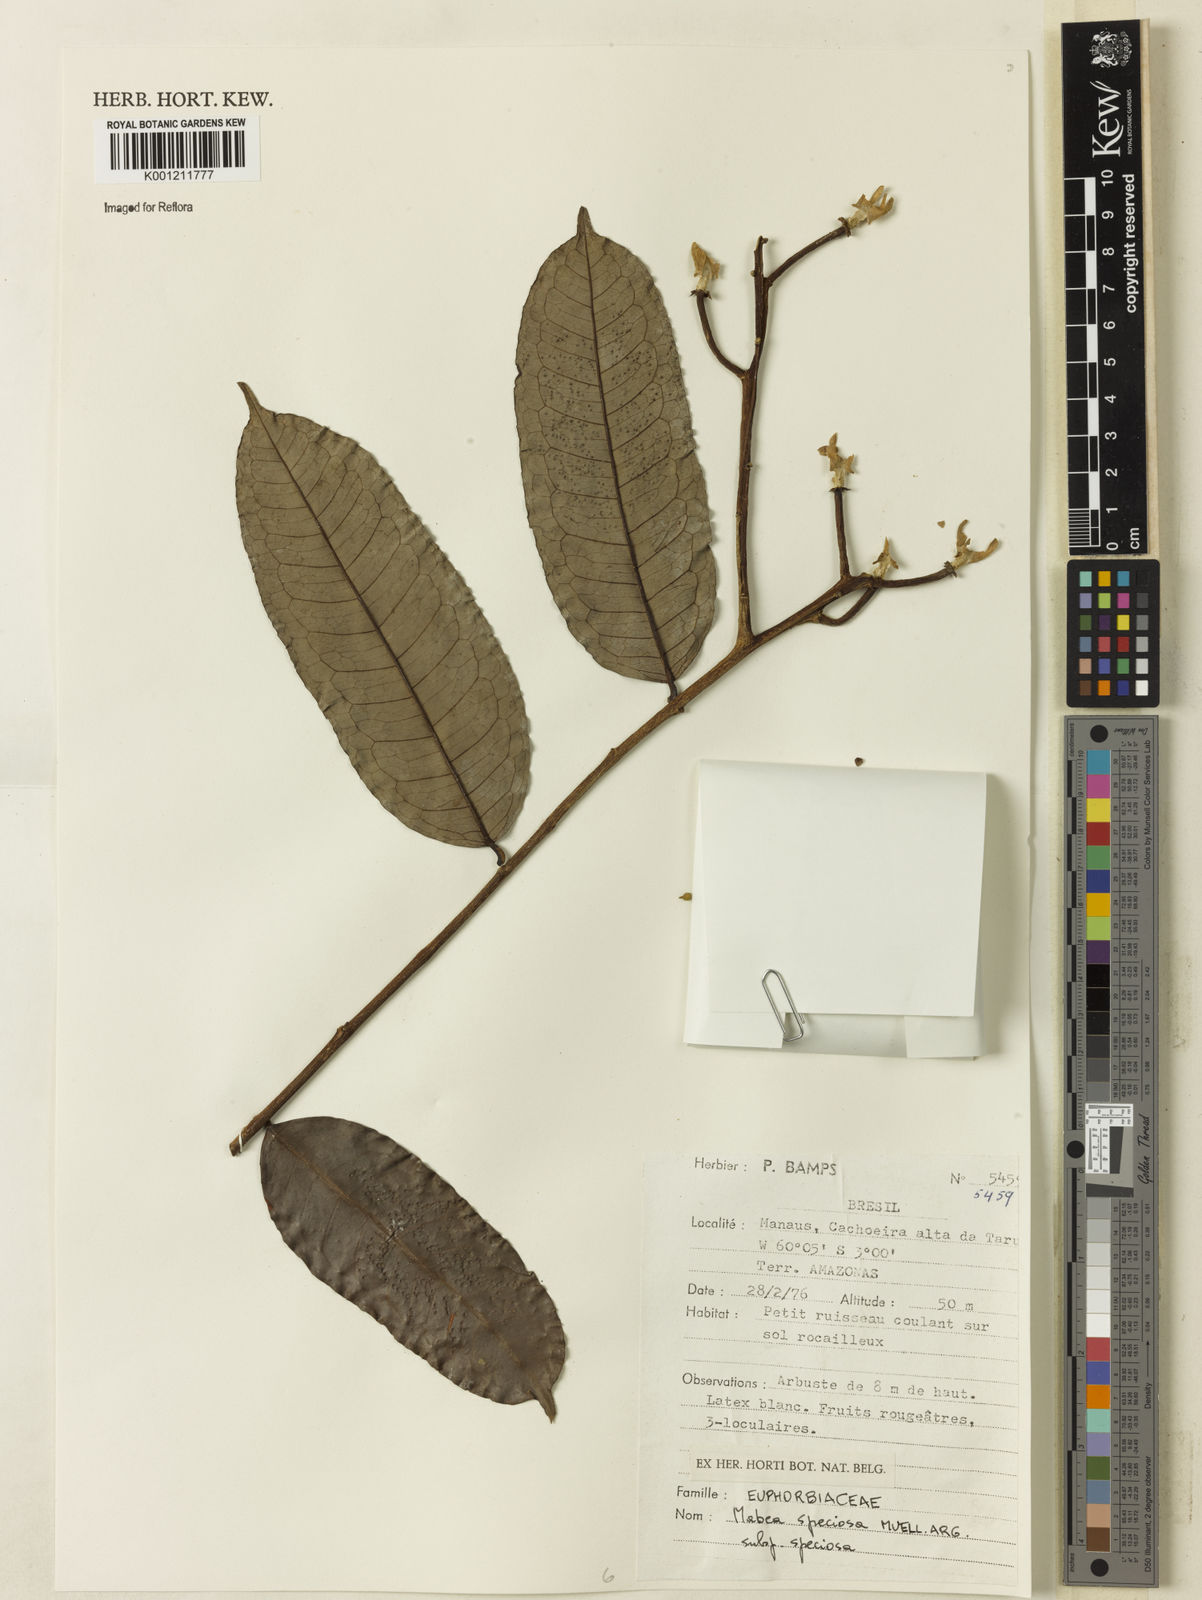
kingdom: Plantae
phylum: Tracheophyta
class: Magnoliopsida
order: Malpighiales
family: Euphorbiaceae
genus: Mabea
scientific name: Mabea
